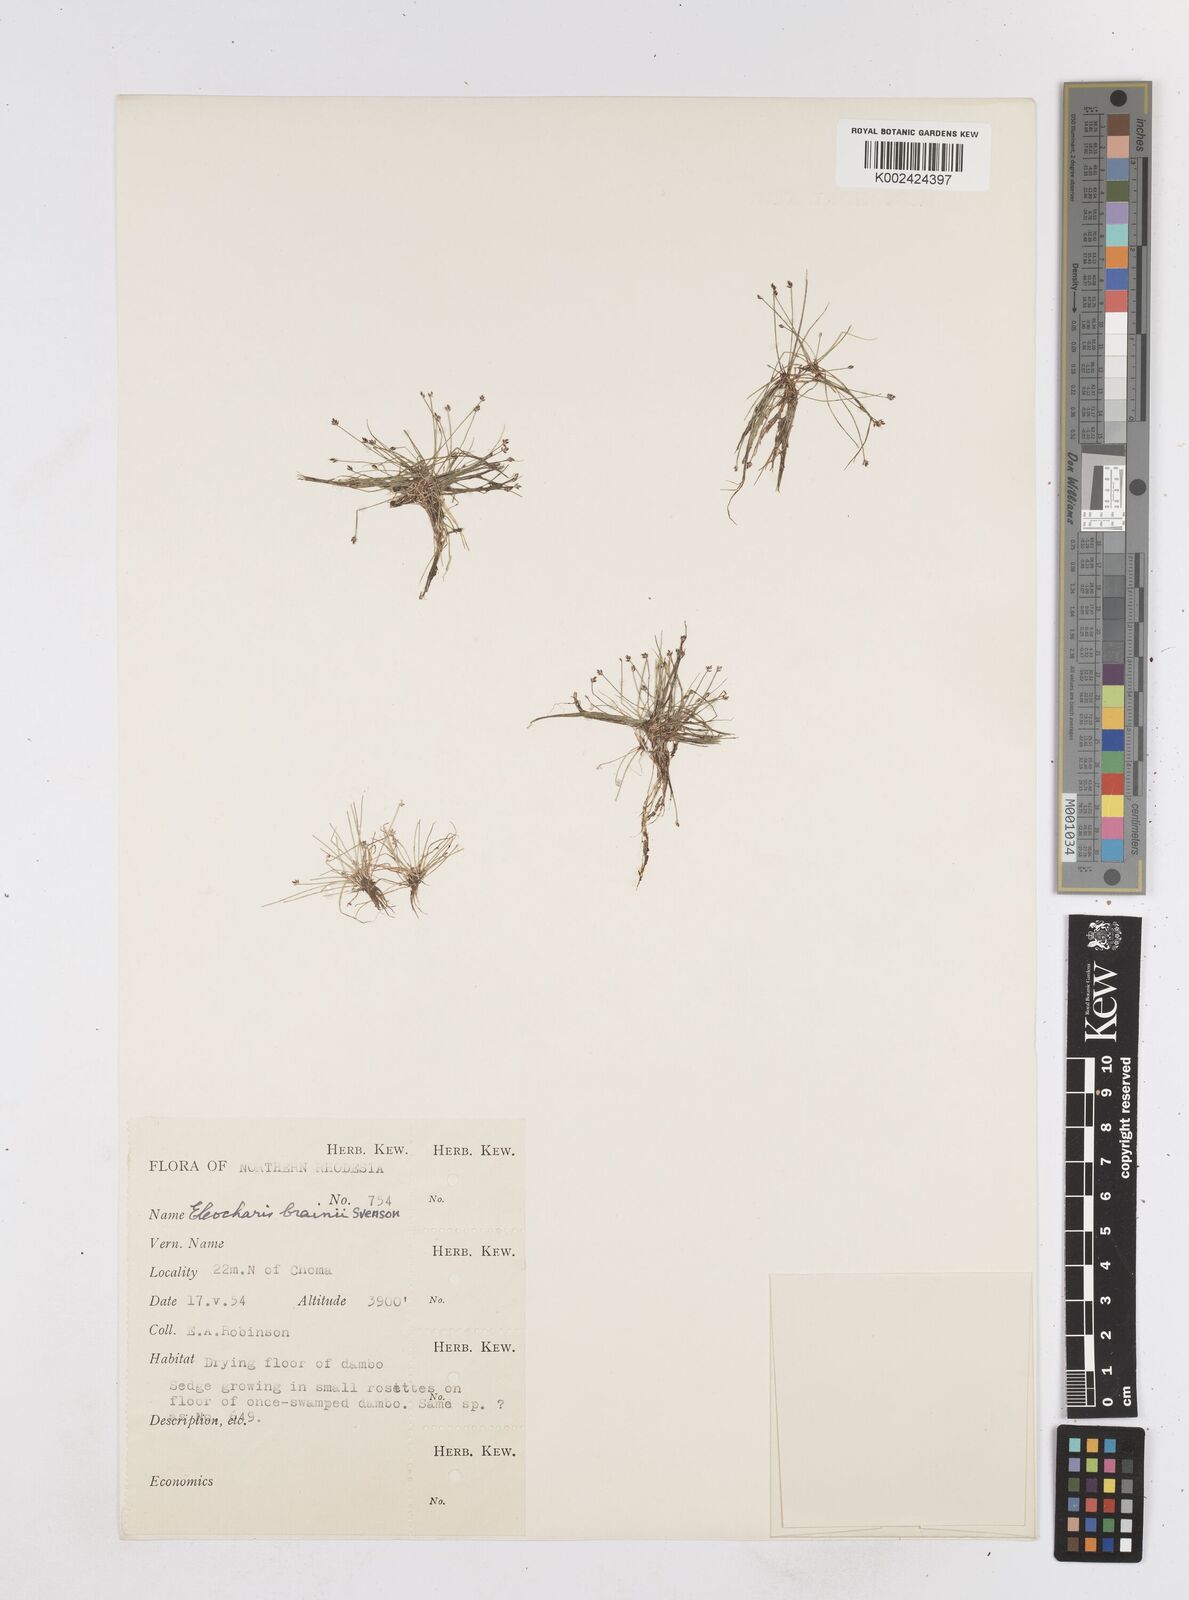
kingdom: Plantae
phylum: Tracheophyta
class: Liliopsida
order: Poales
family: Cyperaceae
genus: Eleocharis
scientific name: Eleocharis brainii
